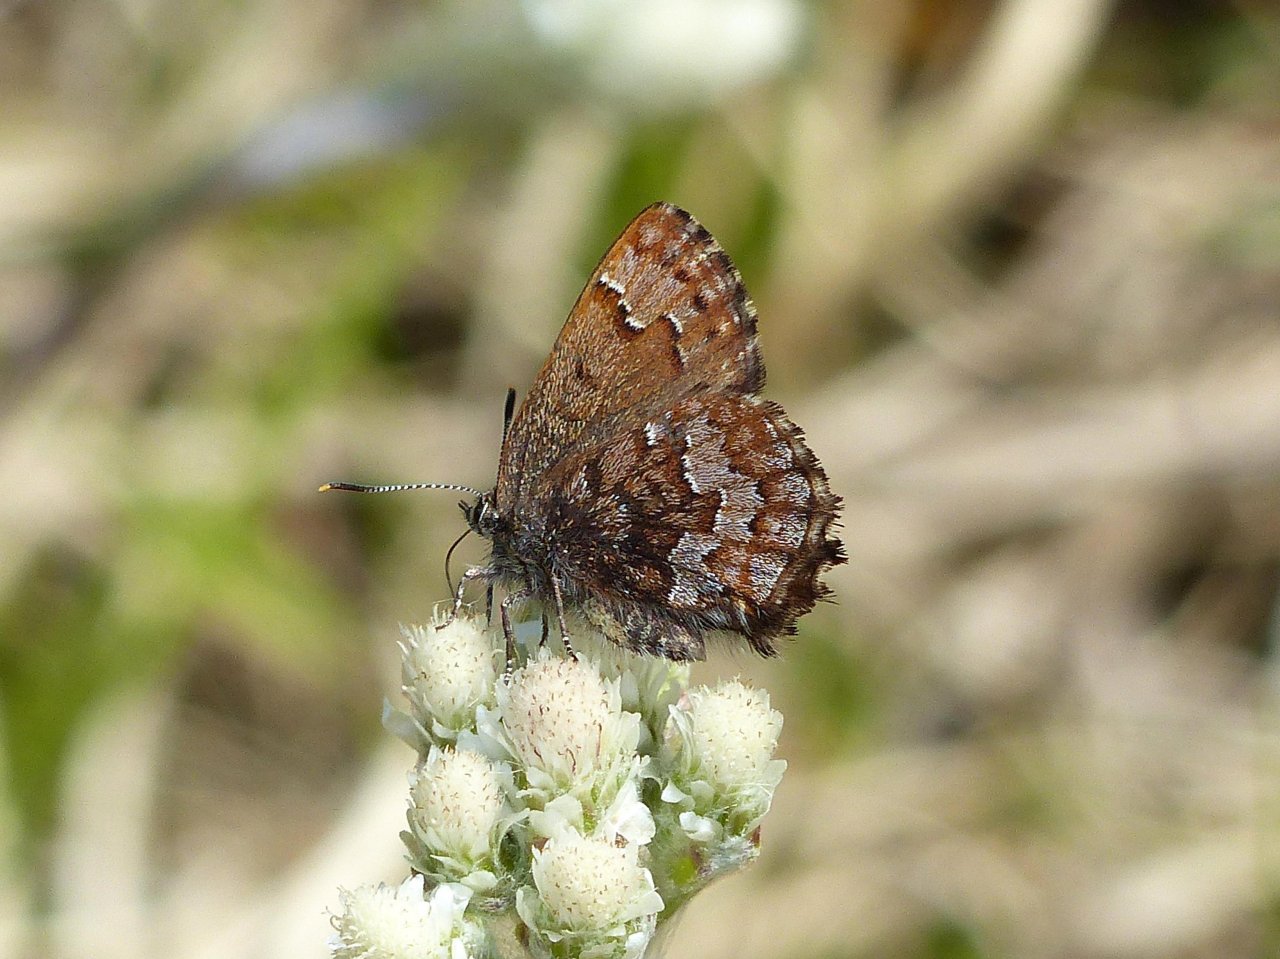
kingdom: Animalia
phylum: Arthropoda
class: Insecta
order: Lepidoptera
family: Lycaenidae
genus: Incisalia
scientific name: Incisalia niphon
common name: Eastern Pine Elfin
